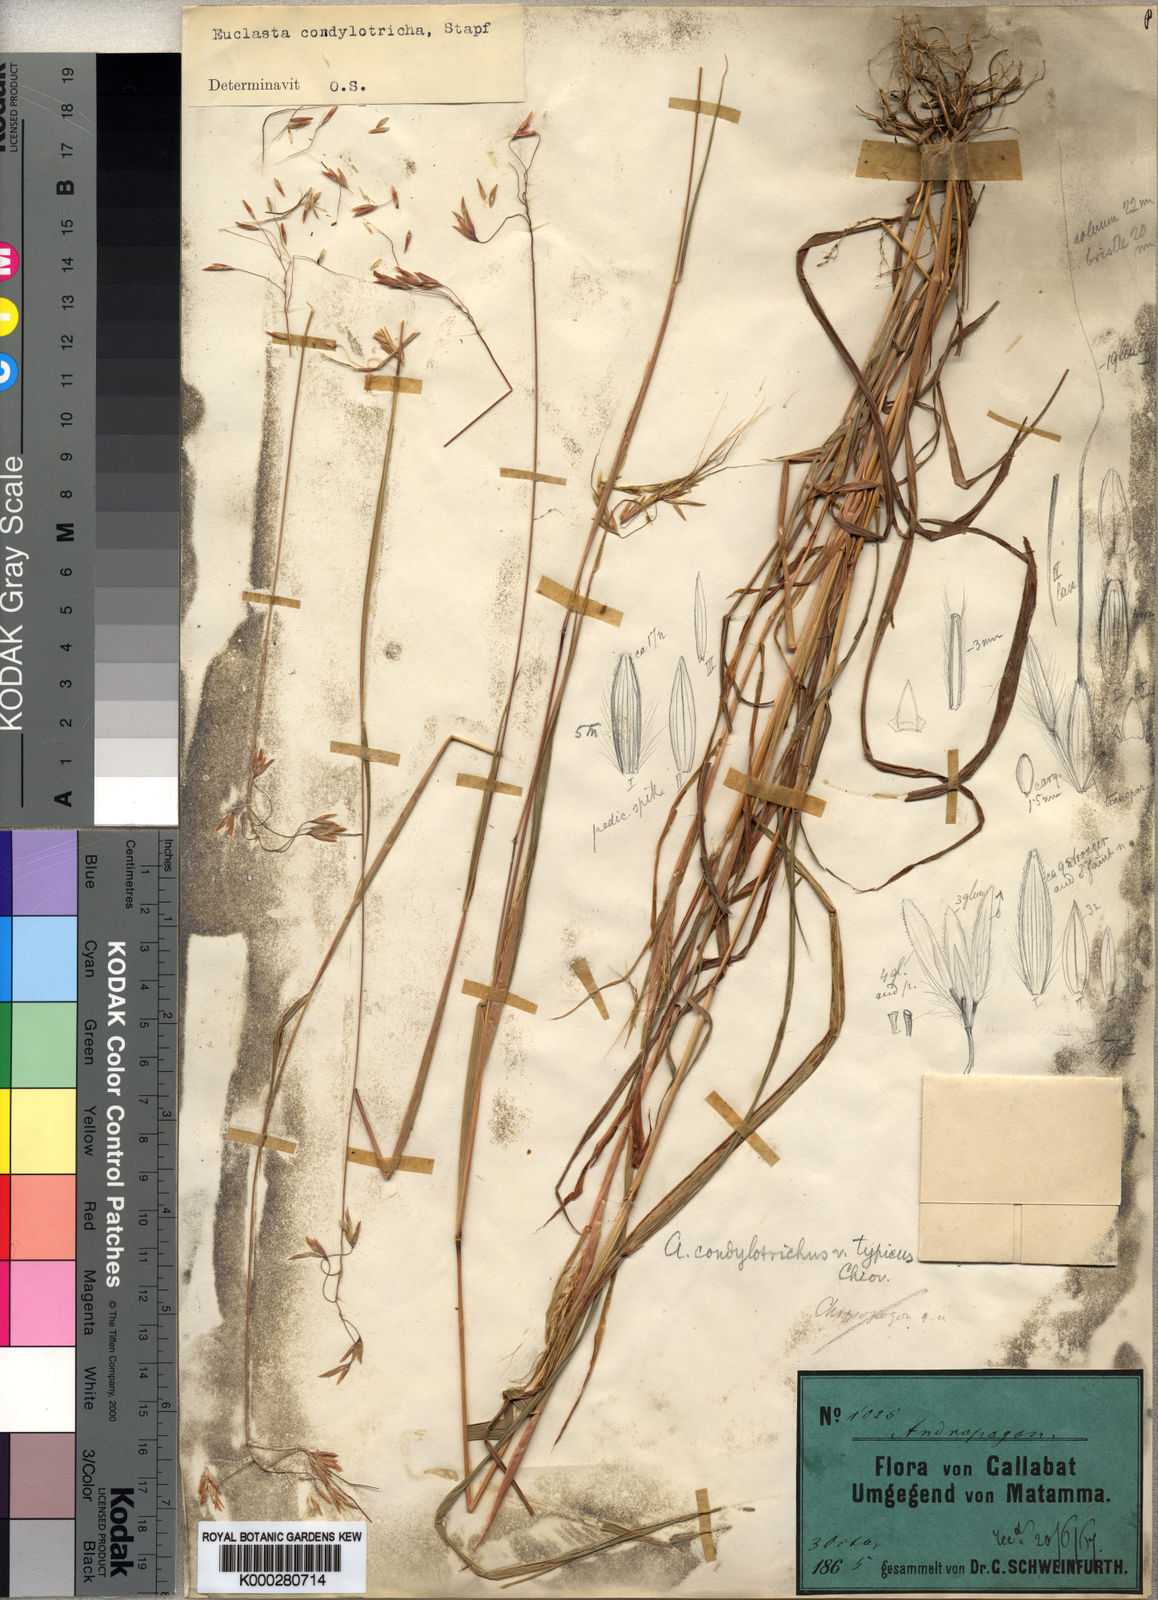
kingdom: Plantae
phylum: Tracheophyta
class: Liliopsida
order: Poales
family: Poaceae
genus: Euclasta
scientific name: Euclasta condylotricha
